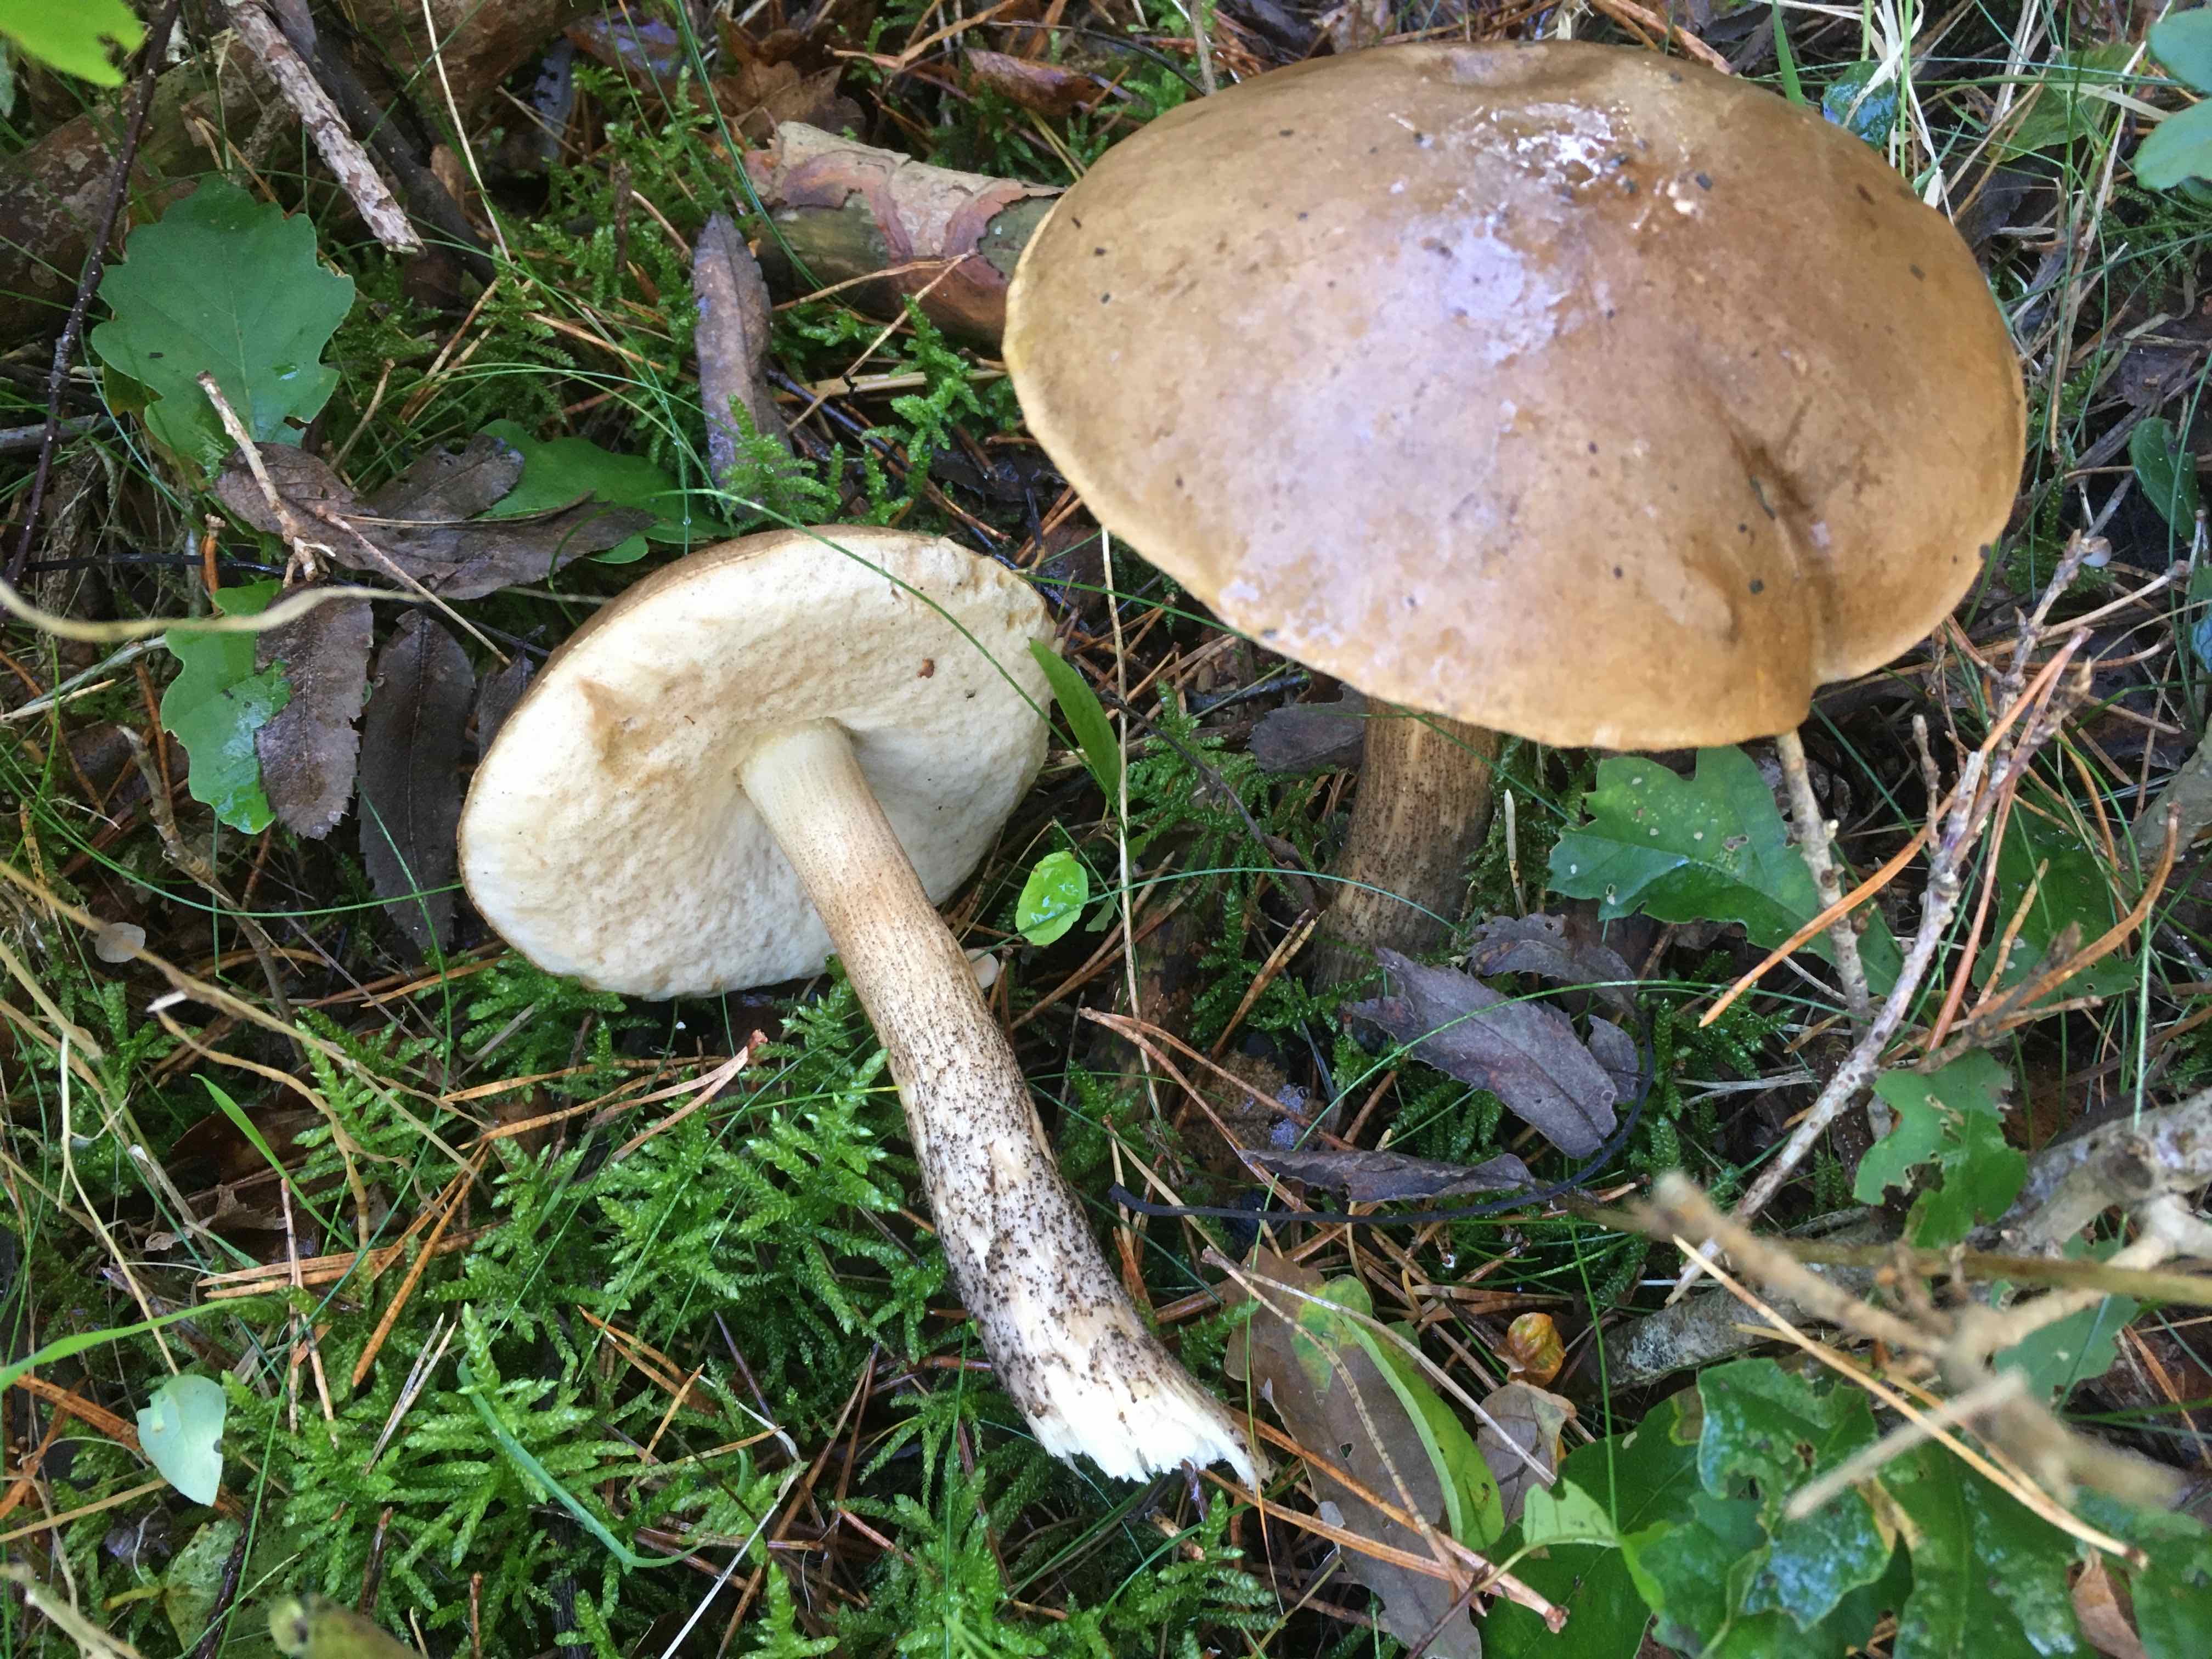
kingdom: Fungi
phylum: Basidiomycota
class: Agaricomycetes
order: Boletales
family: Boletaceae
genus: Leccinum
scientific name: Leccinum scabrum
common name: brun skælrørhat
